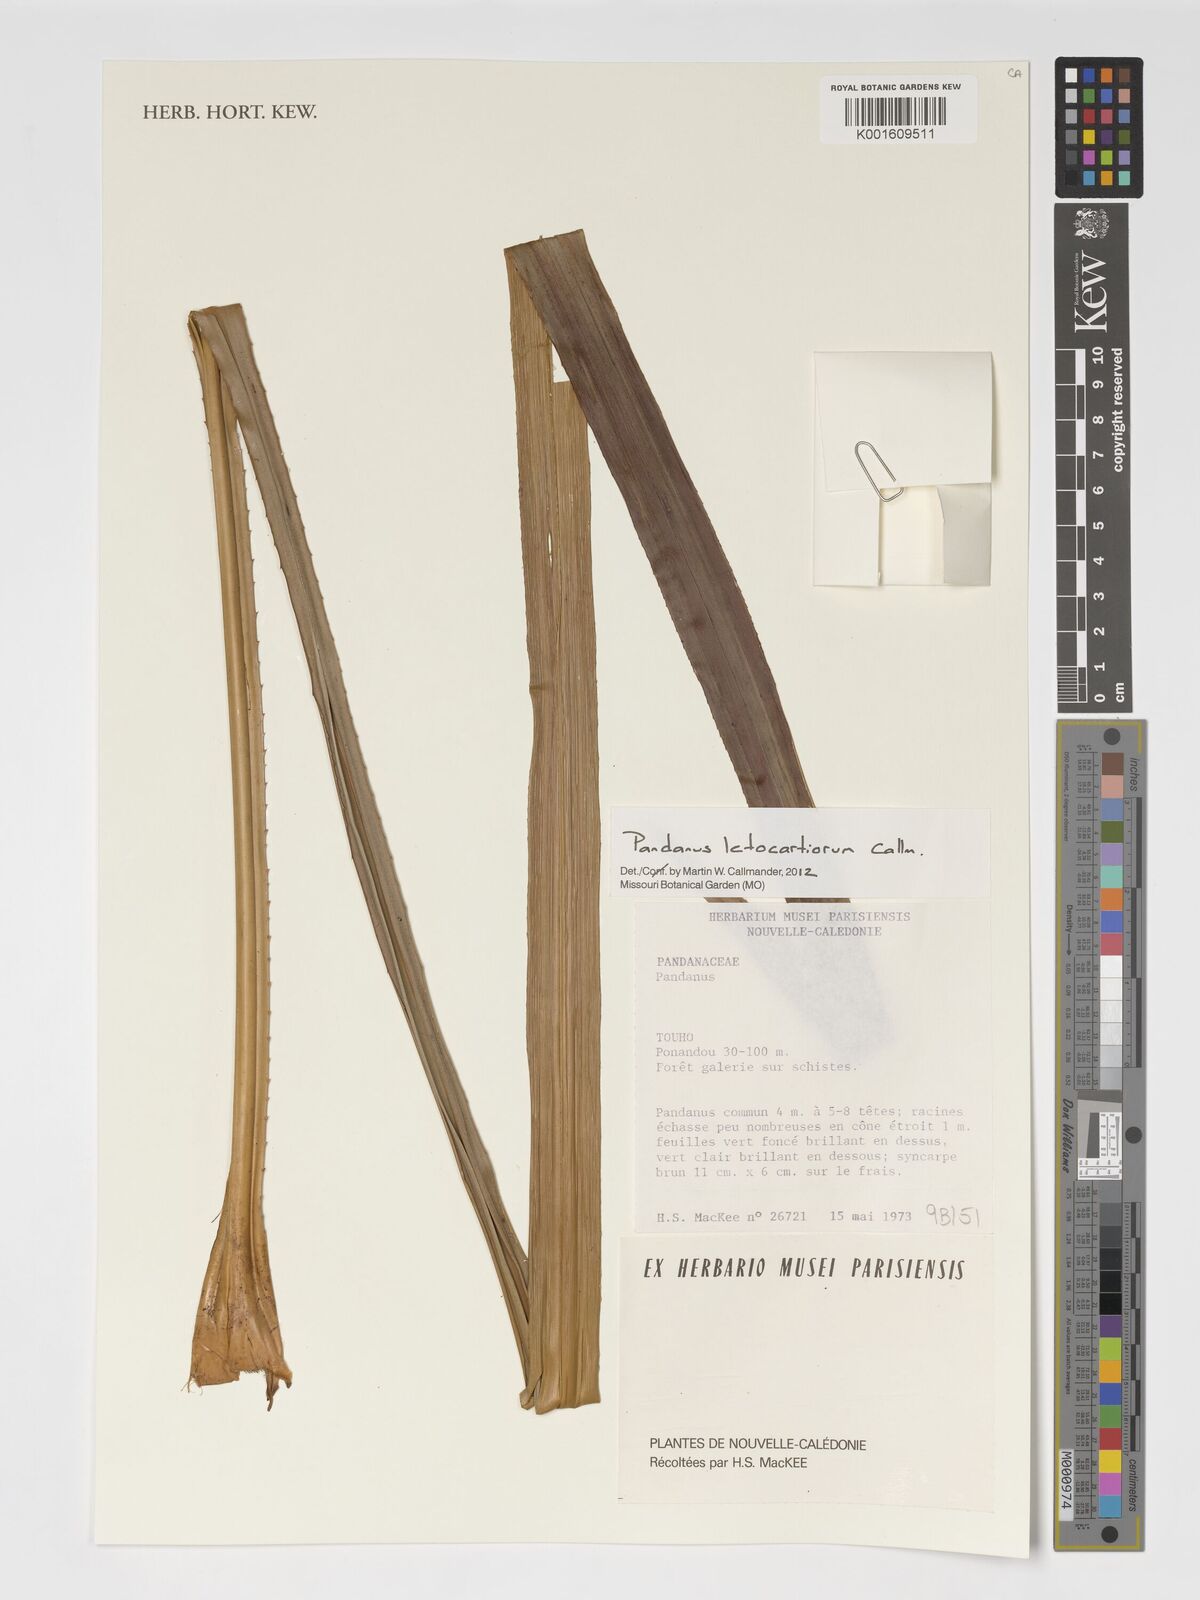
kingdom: Plantae
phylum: Tracheophyta
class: Liliopsida
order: Pandanales
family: Pandanaceae
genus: Pandanus
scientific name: Pandanus letocartiorum
